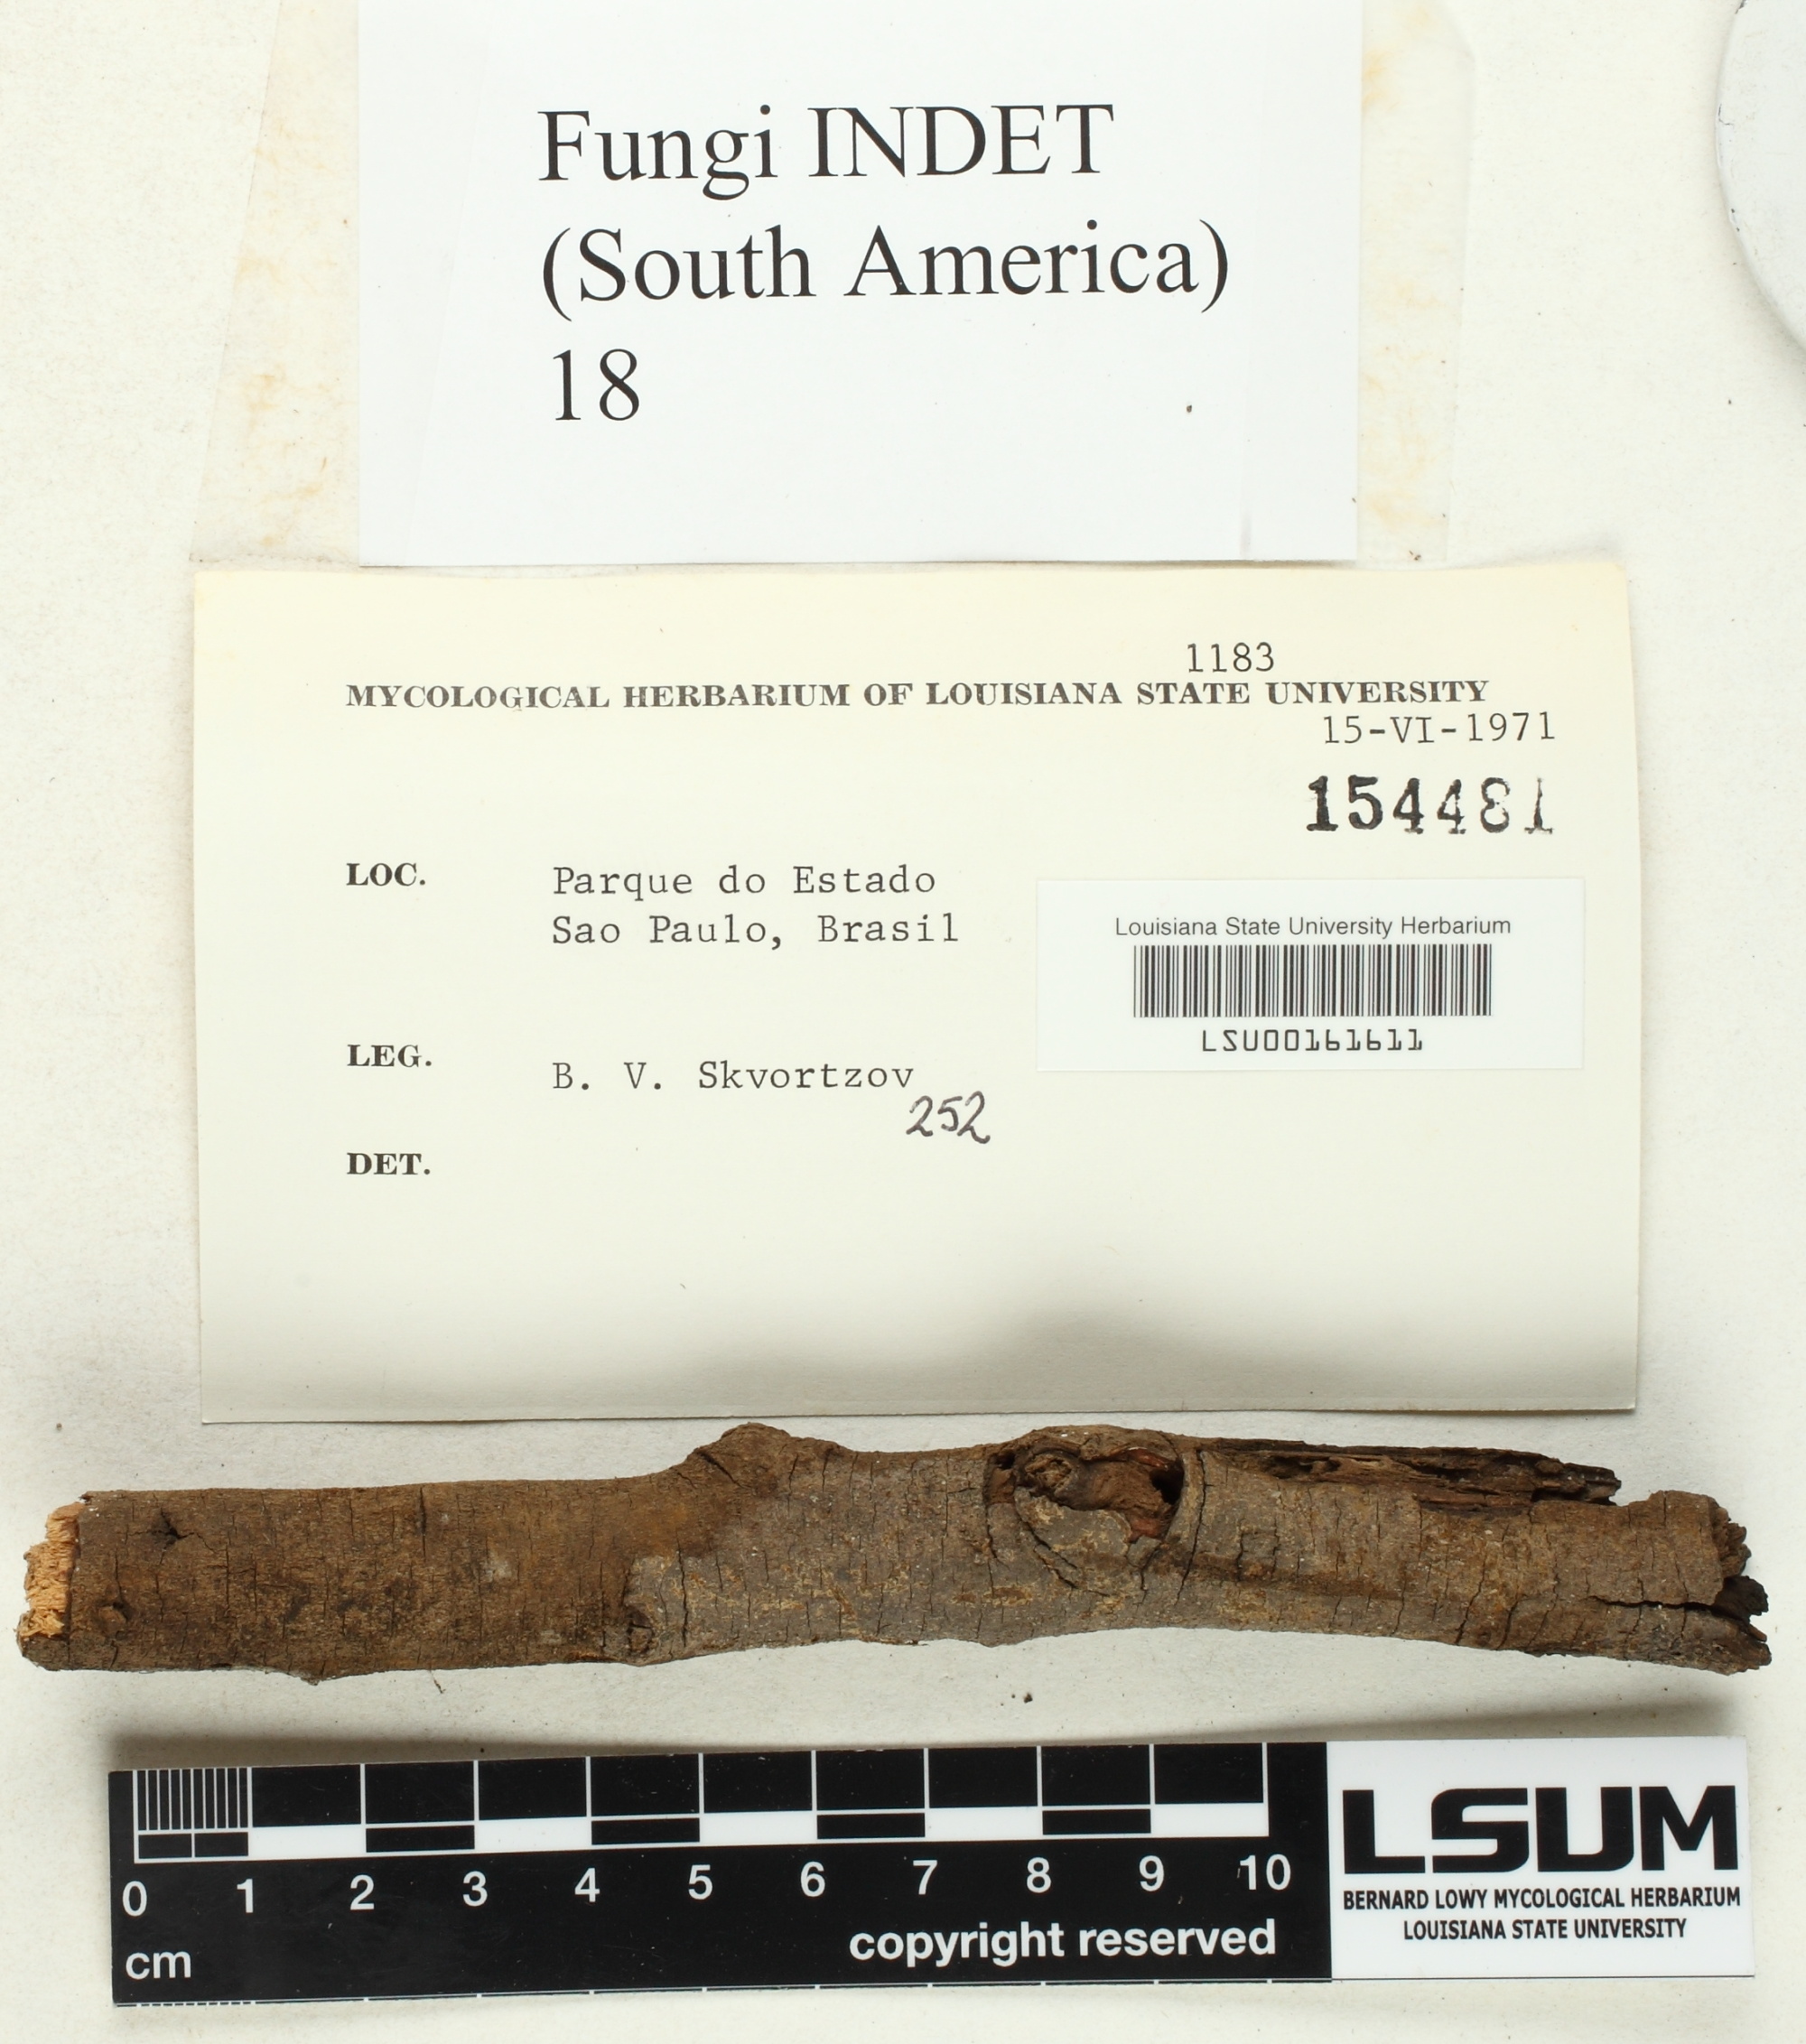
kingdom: Fungi
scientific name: Fungi
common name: Fungi
